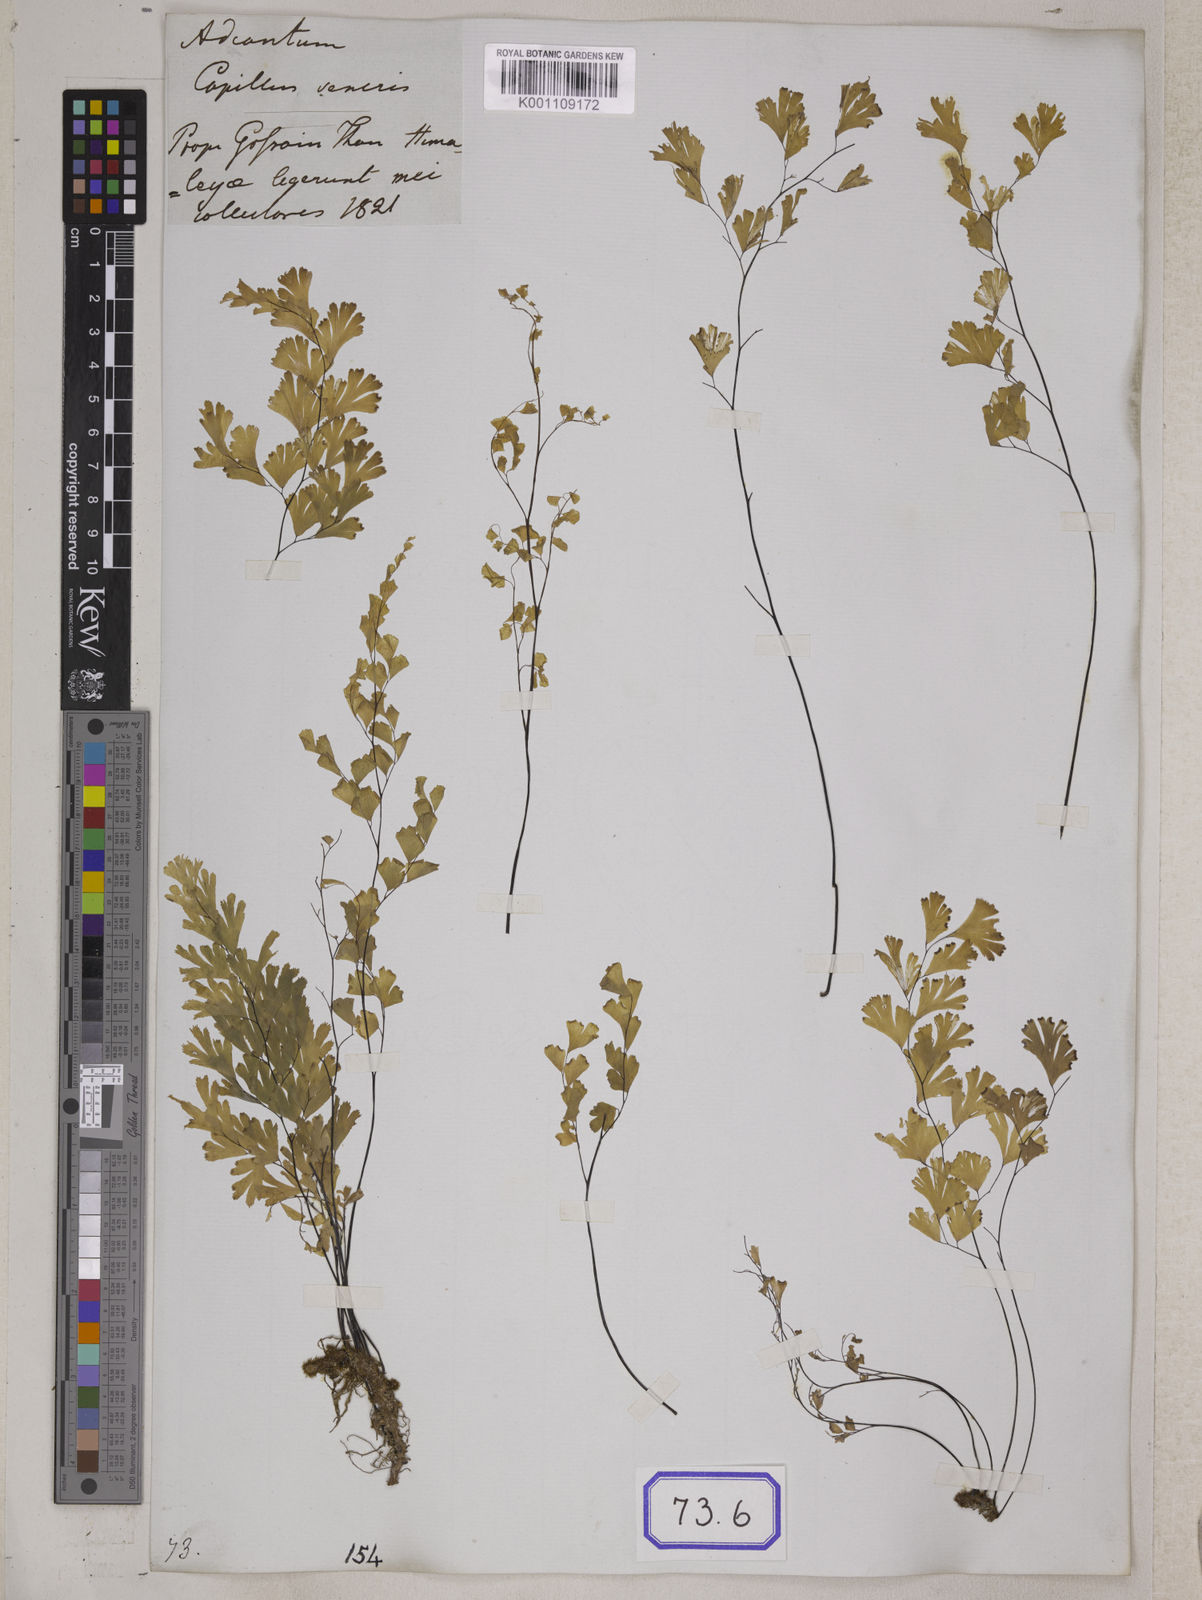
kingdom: Plantae
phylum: Tracheophyta
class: Polypodiopsida
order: Polypodiales
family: Pteridaceae
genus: Adiantum
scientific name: Adiantum
